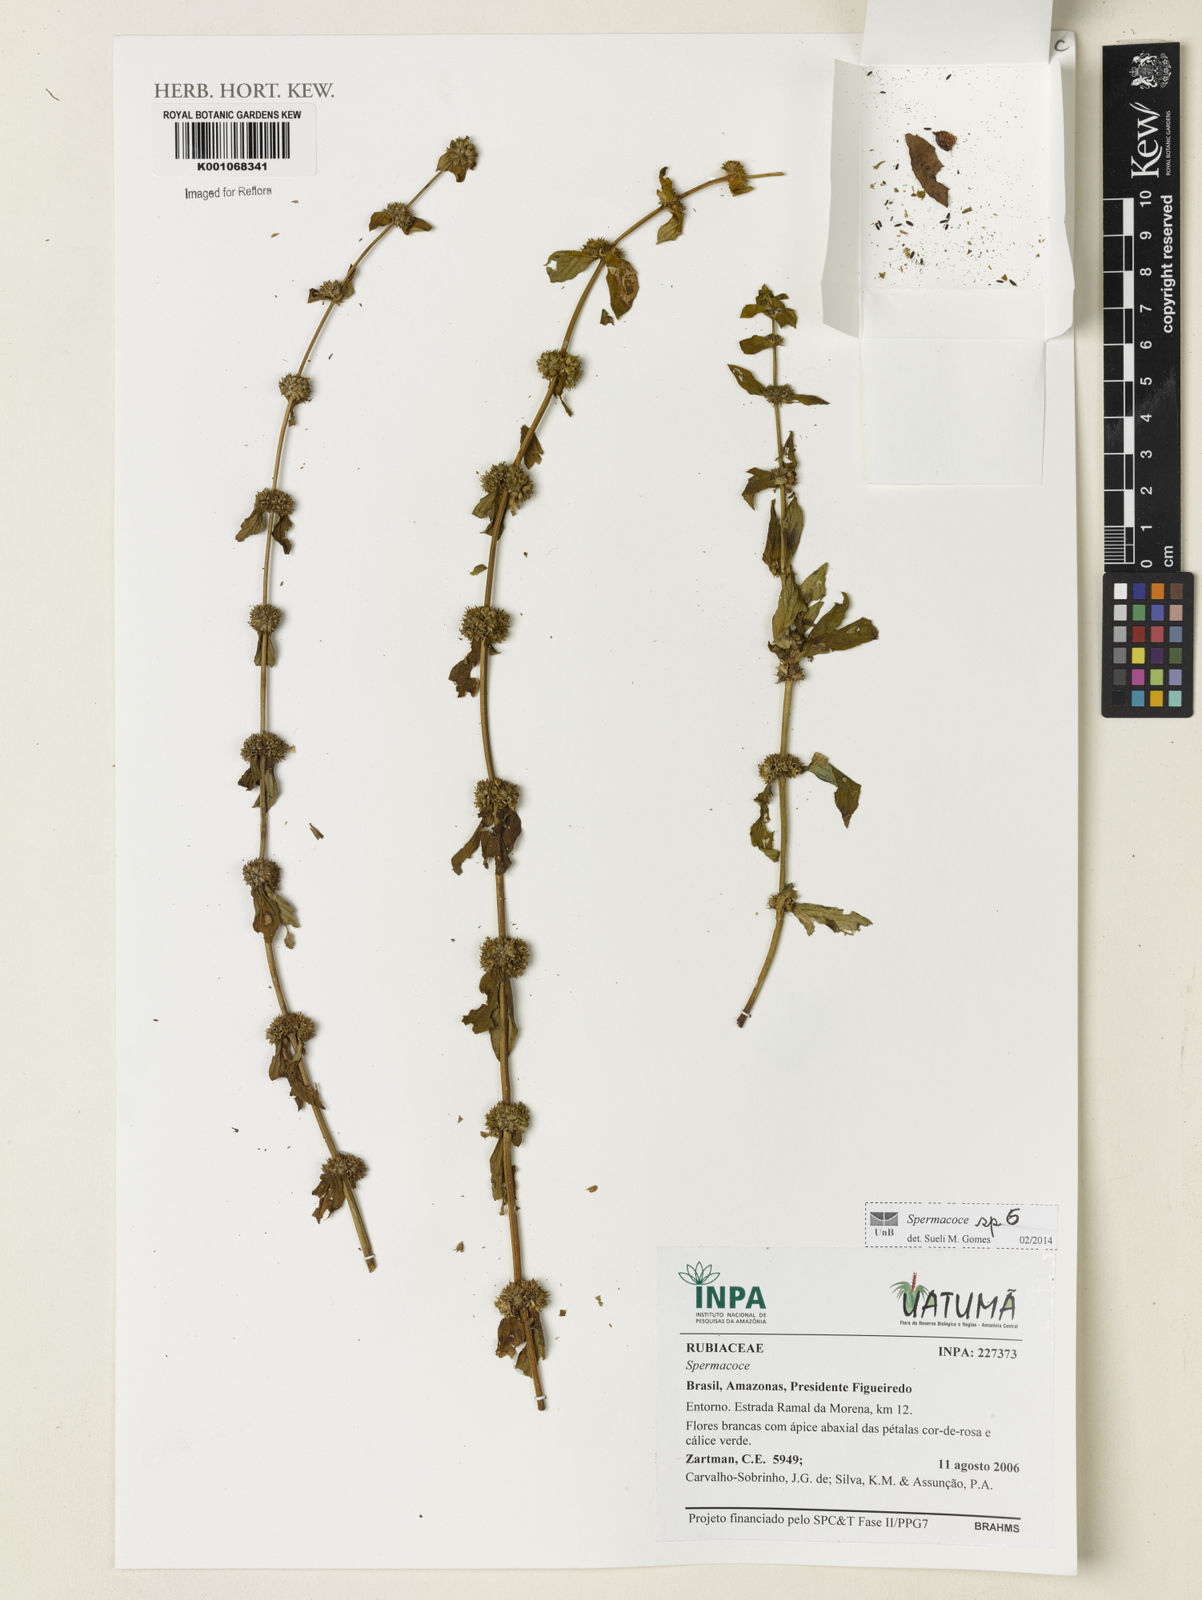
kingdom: Plantae
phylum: Tracheophyta
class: Magnoliopsida
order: Gentianales
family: Rubiaceae
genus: Spermacoce
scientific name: Spermacoce
